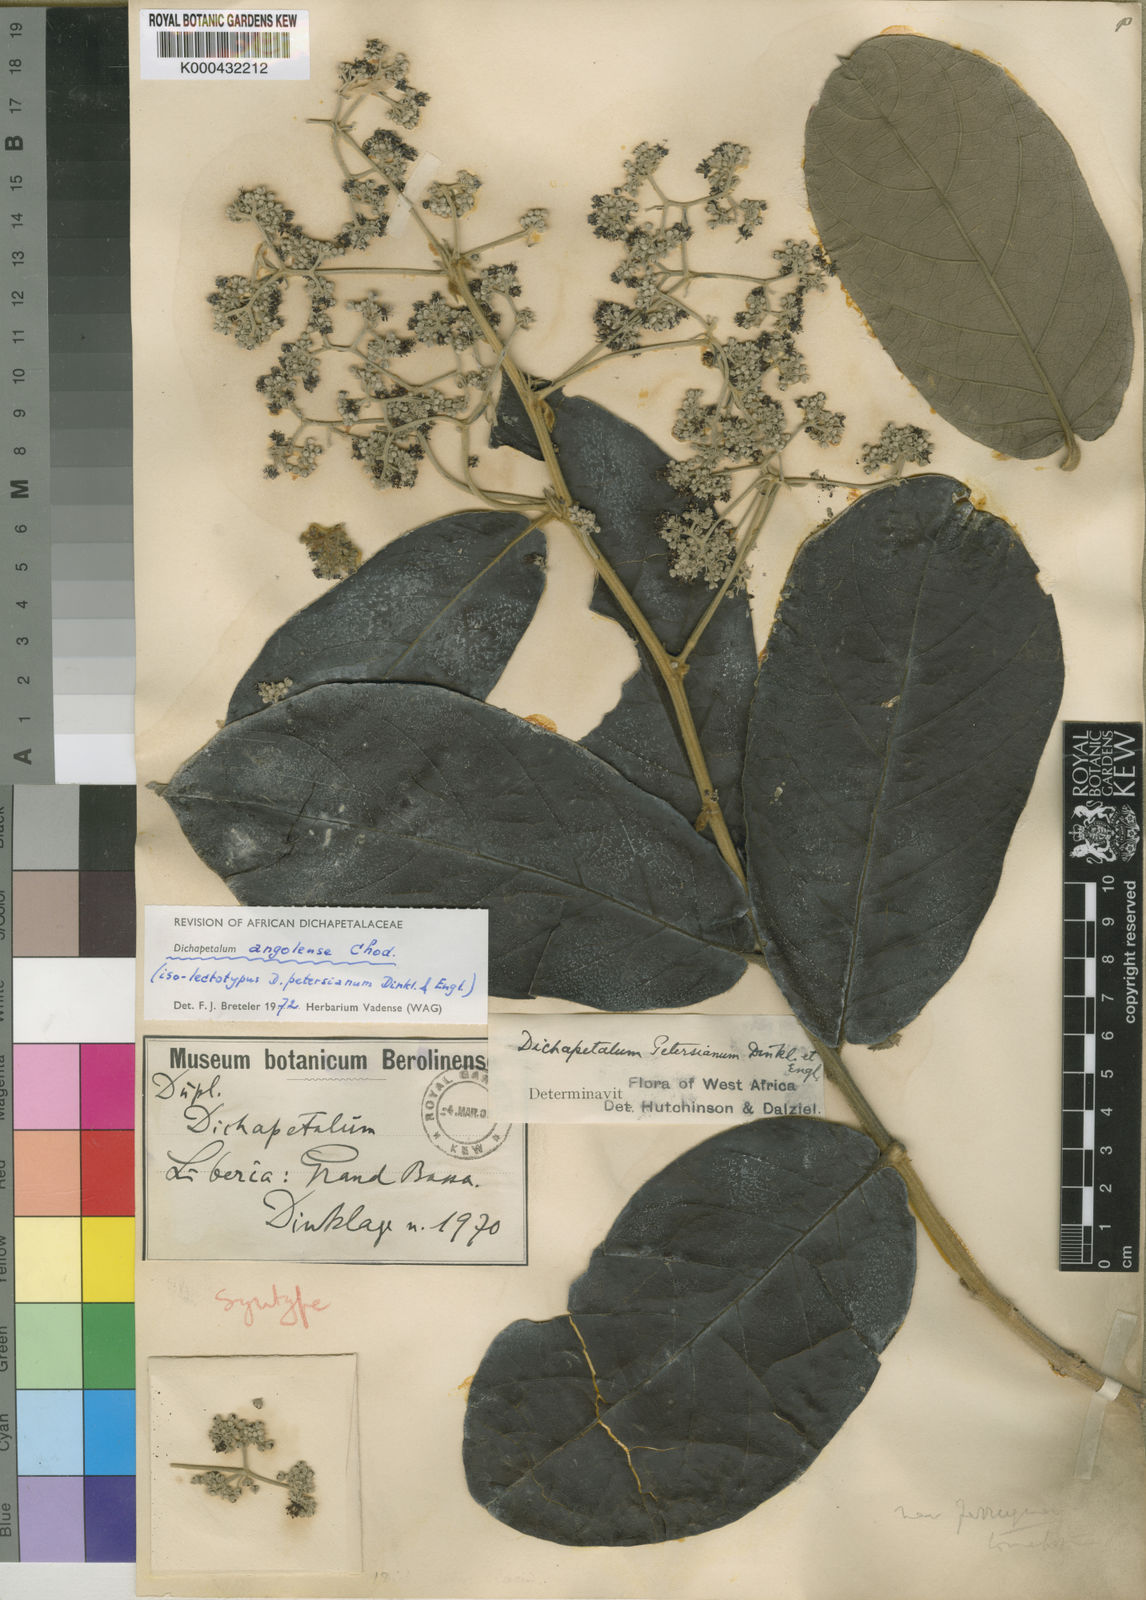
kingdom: Plantae
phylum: Tracheophyta
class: Magnoliopsida
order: Malpighiales
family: Dichapetalaceae
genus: Dichapetalum
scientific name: Dichapetalum angolense
